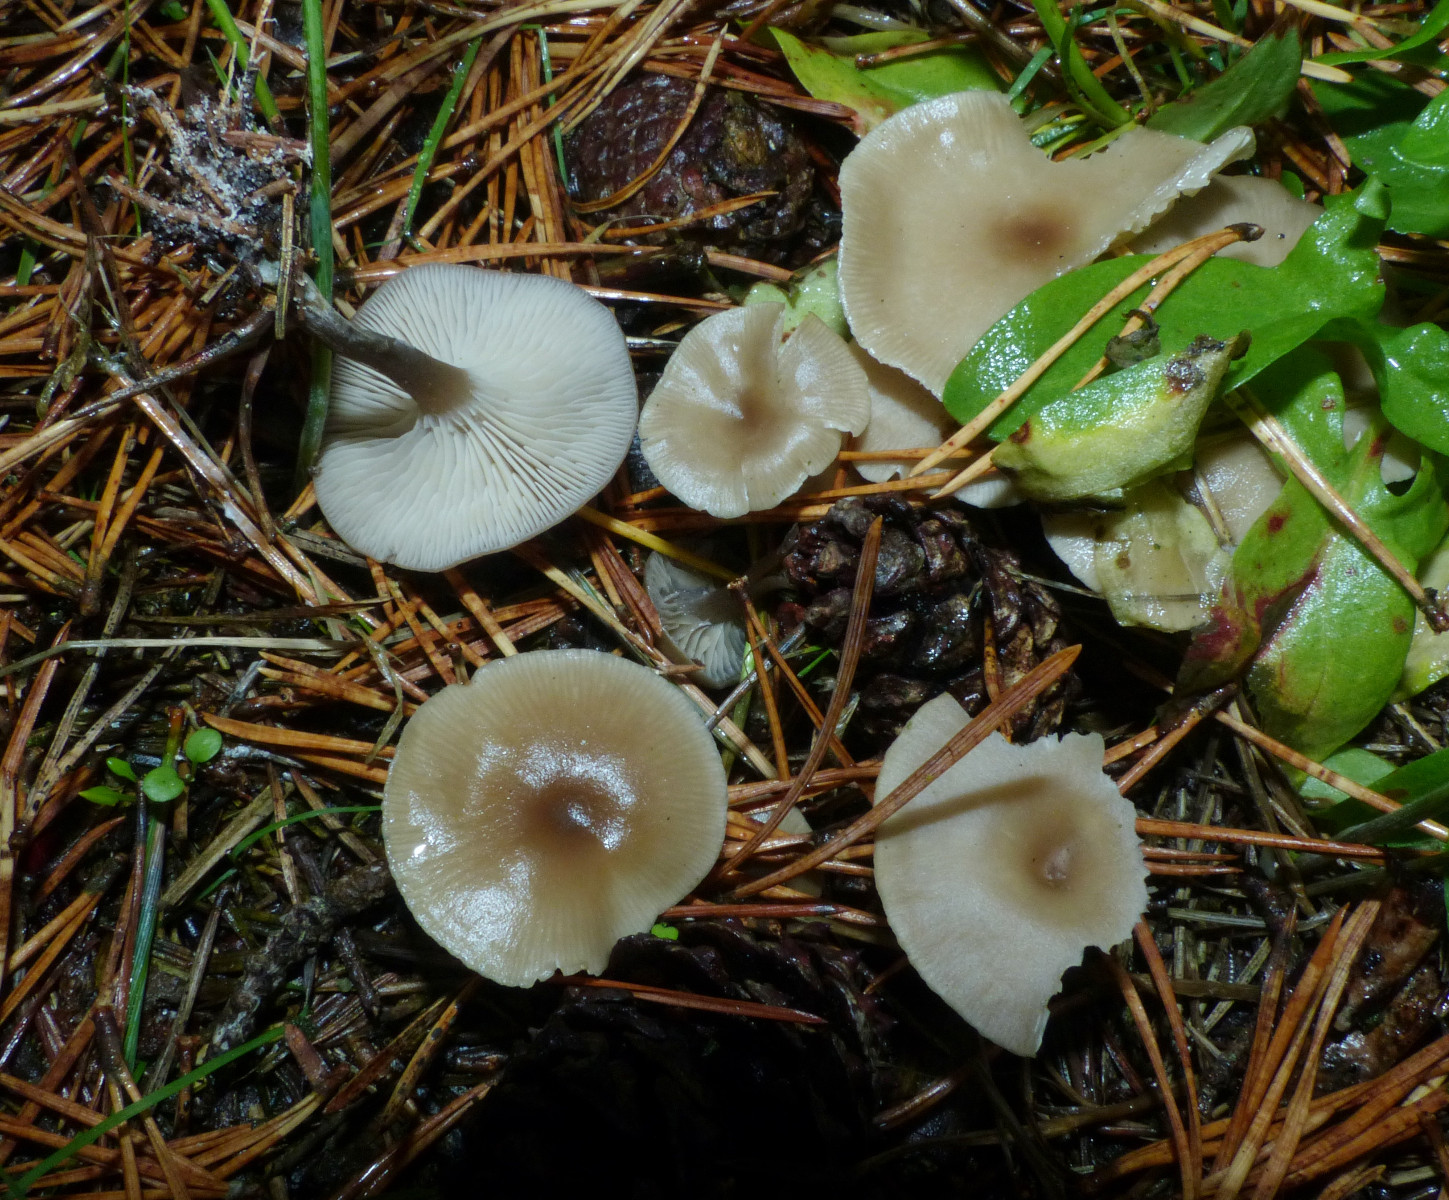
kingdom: Fungi
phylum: Basidiomycota
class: Agaricomycetes
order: Agaricales
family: Tricholomataceae
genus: Clitocybe
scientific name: Clitocybe vibecina
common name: randstribet tragthat
